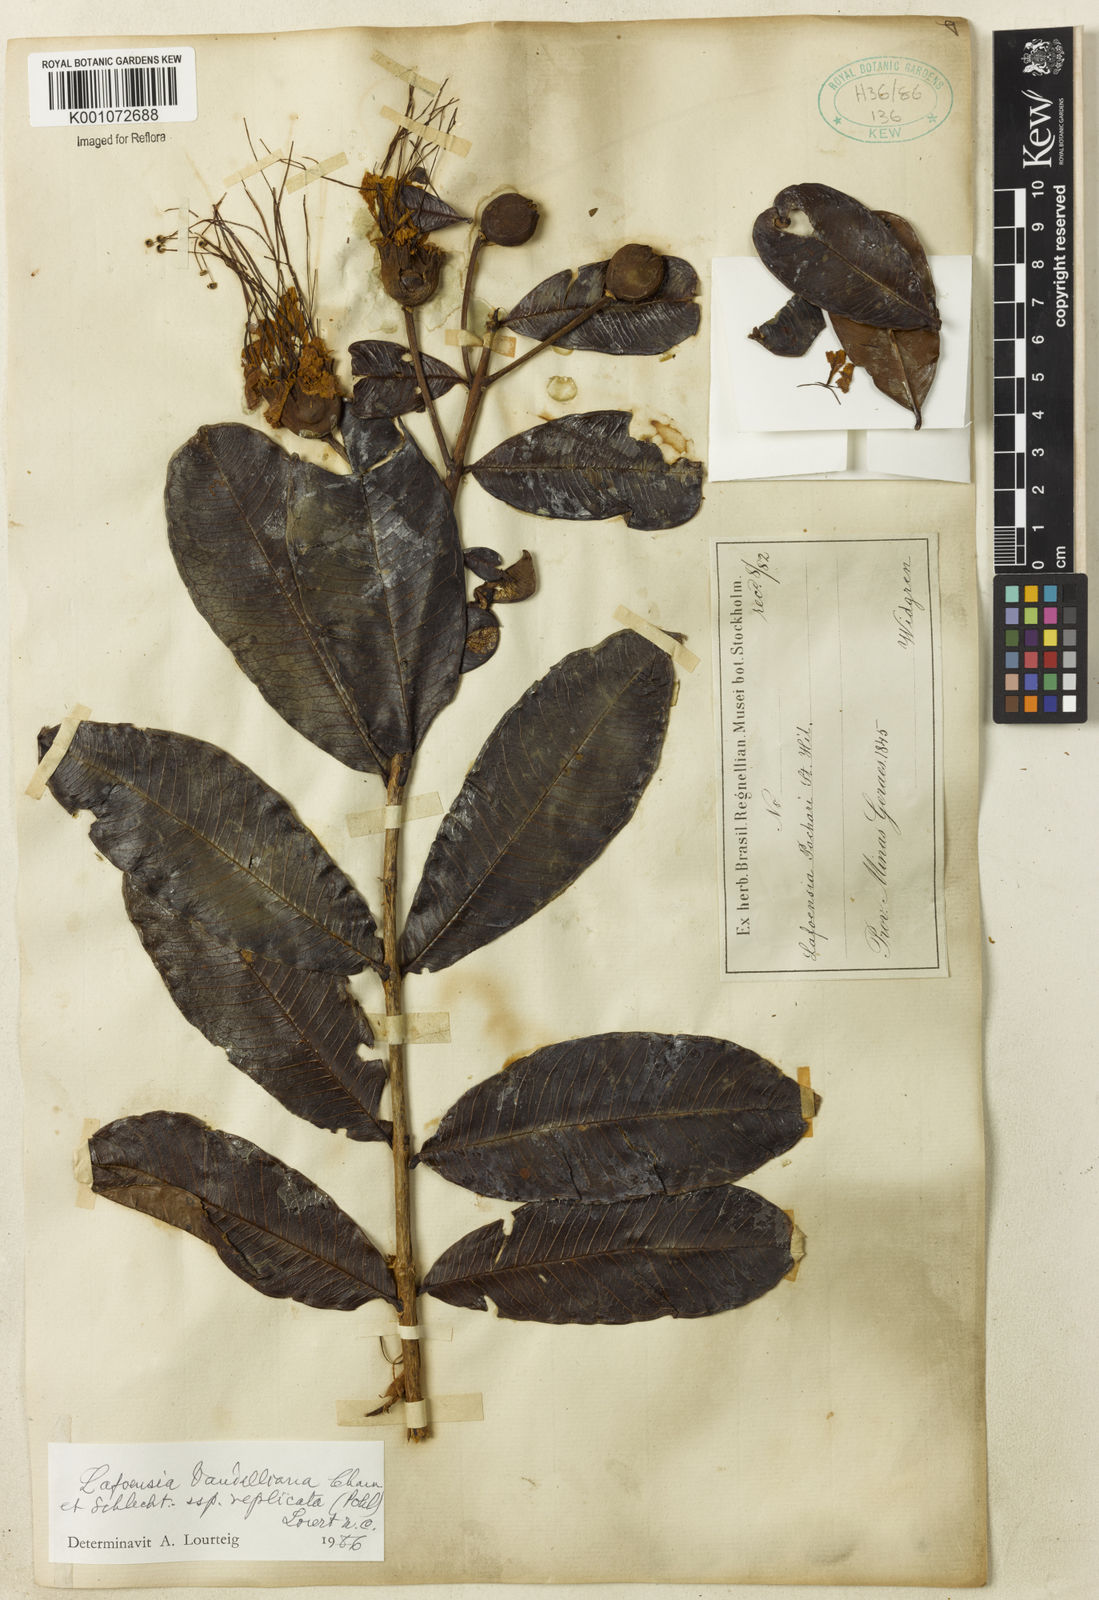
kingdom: Plantae
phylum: Tracheophyta
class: Magnoliopsida
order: Myrtales
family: Lythraceae
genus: Lafoensia
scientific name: Lafoensia vandelliana
